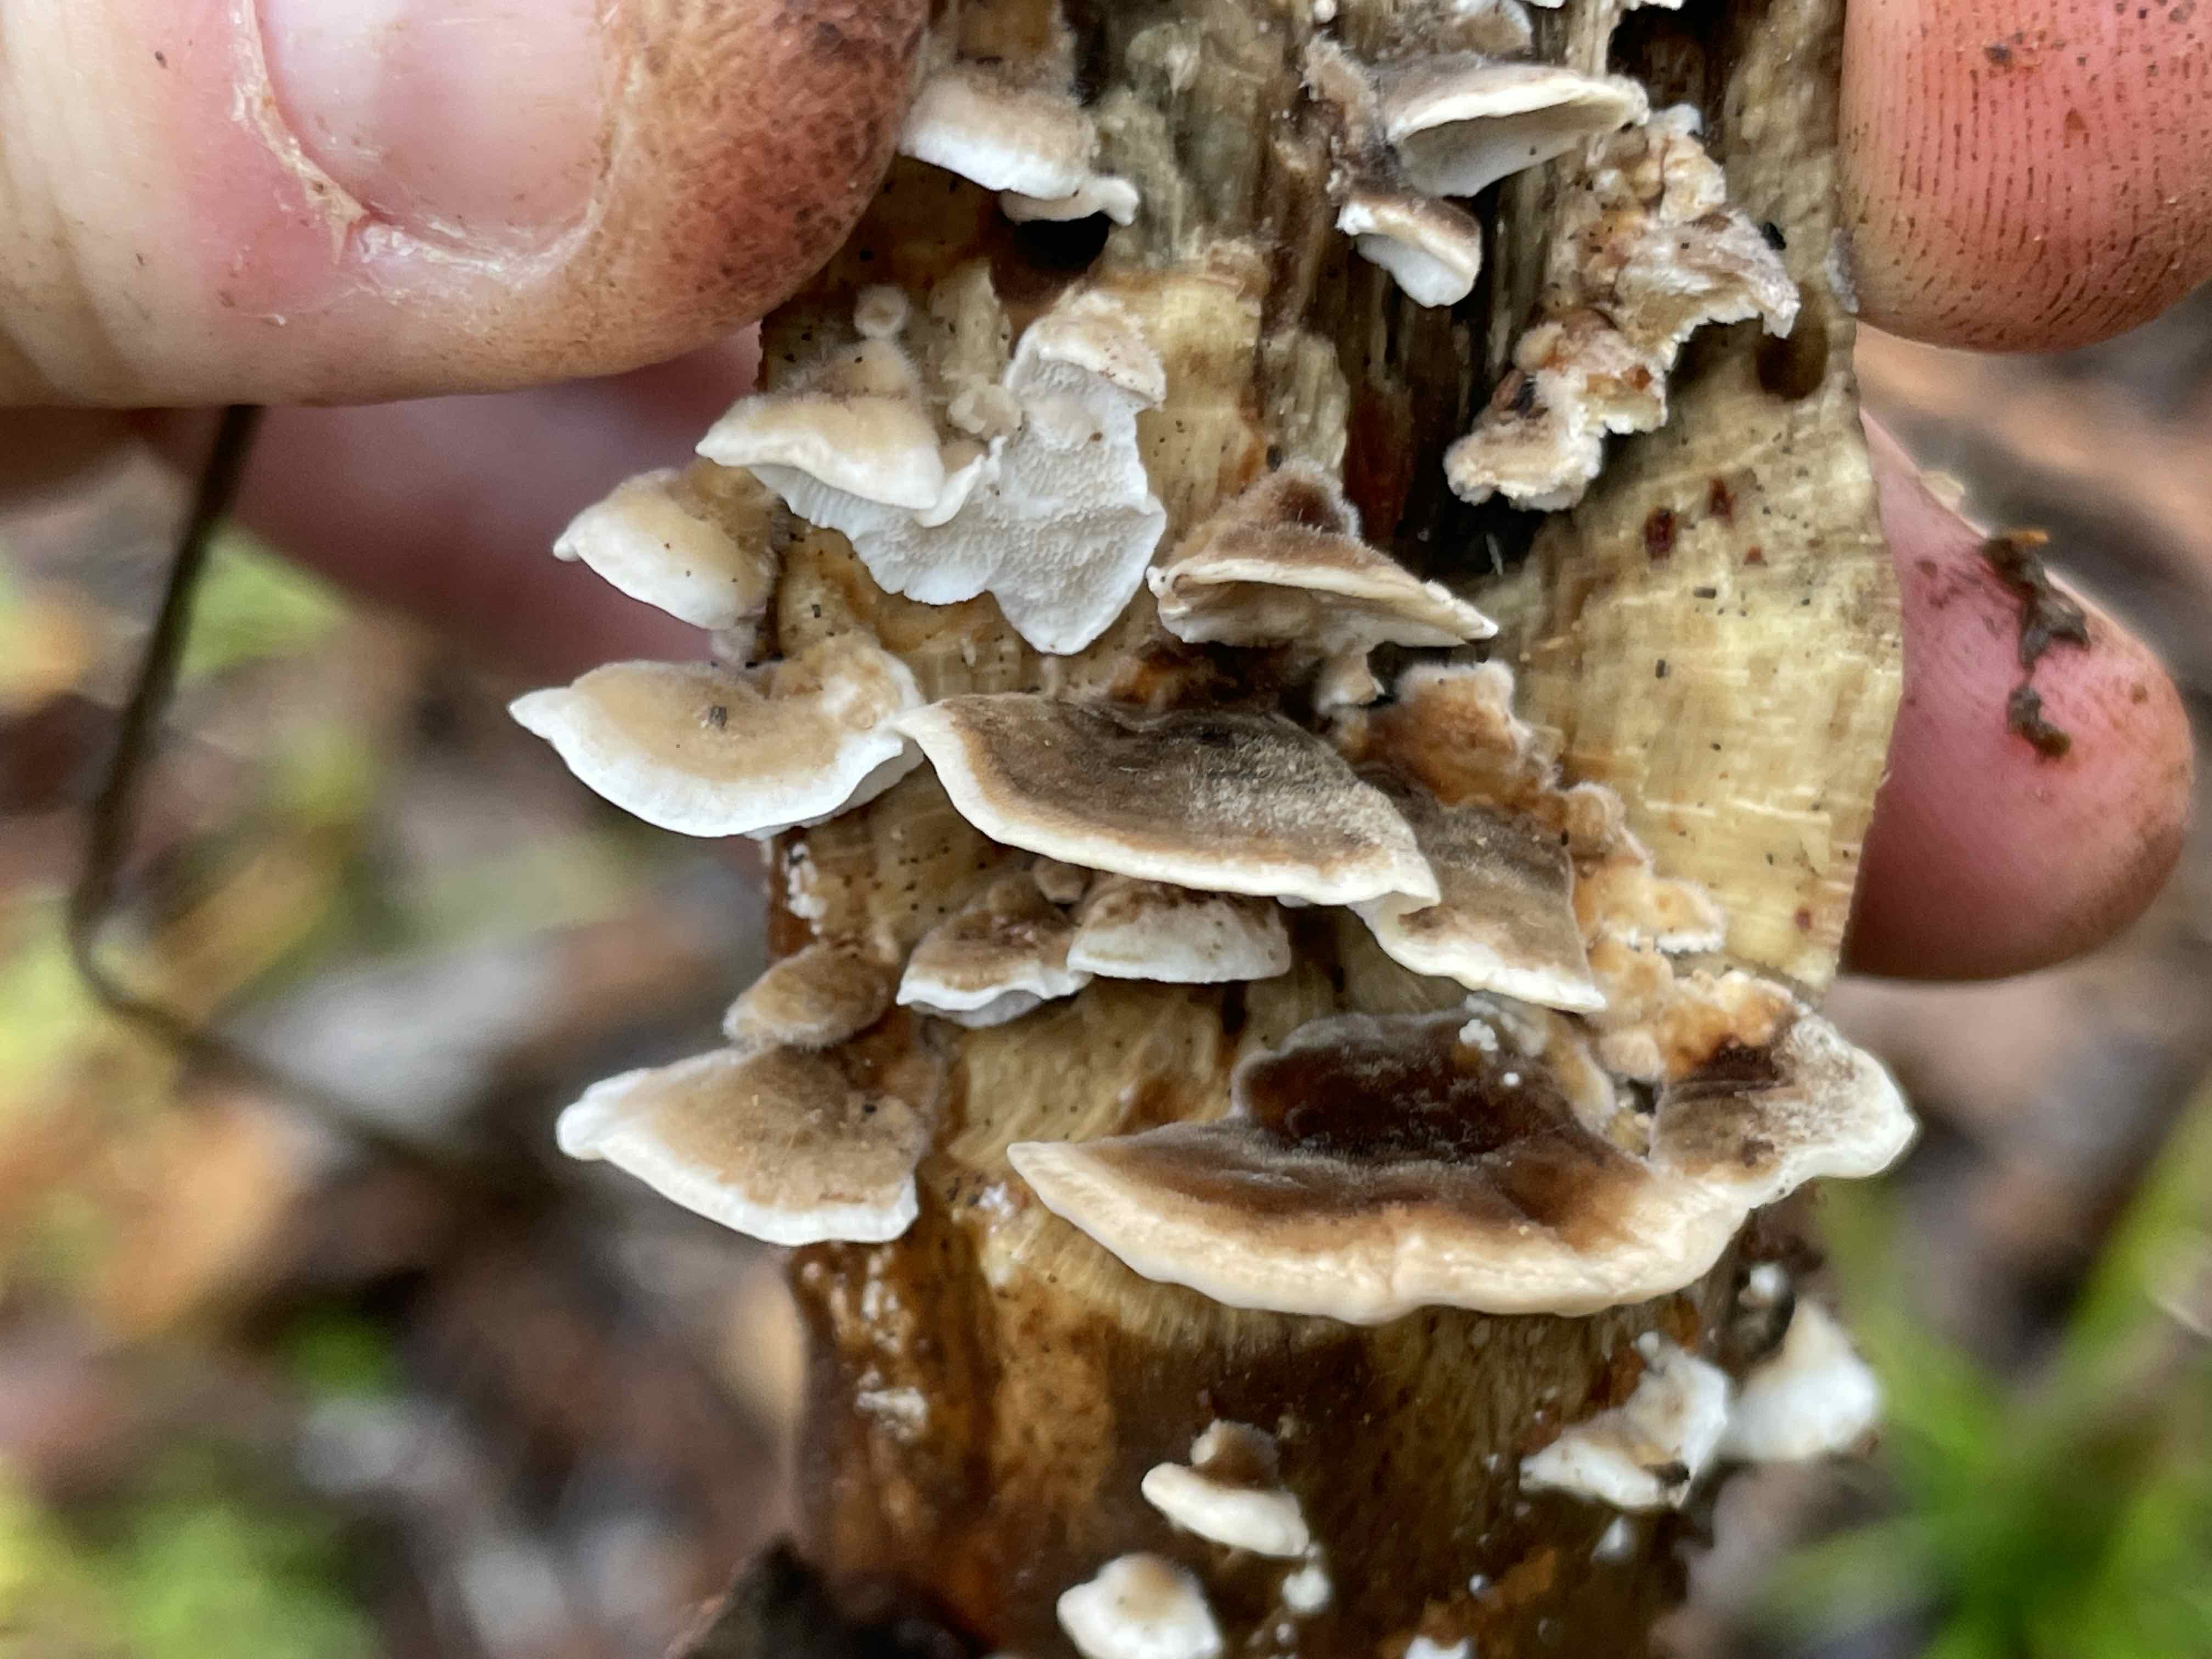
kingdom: Fungi
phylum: Basidiomycota
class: Agaricomycetes
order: Polyporales
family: Polyporaceae
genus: Trametes
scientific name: Trametes versicolor
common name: broget læderporesvamp
